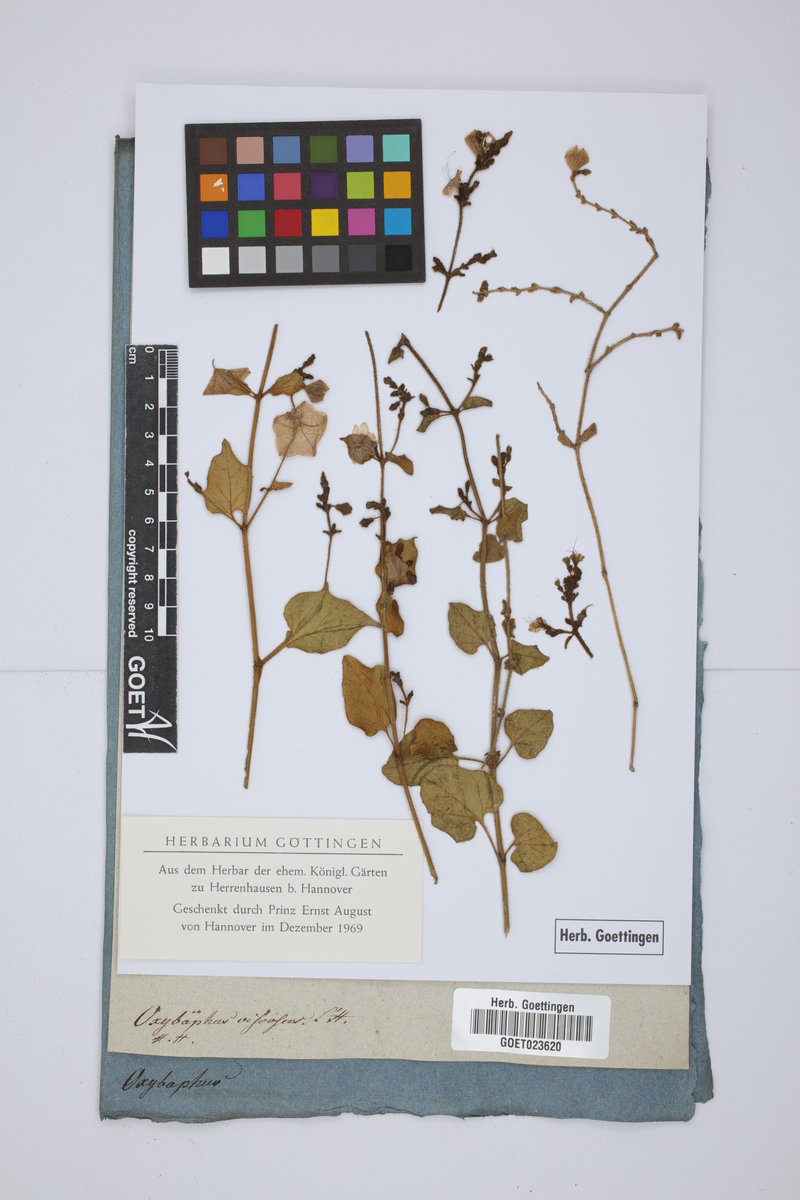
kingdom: Plantae
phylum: Tracheophyta
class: Magnoliopsida
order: Caryophyllales
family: Nyctaginaceae
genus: Mirabilis
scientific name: Mirabilis viscosa
